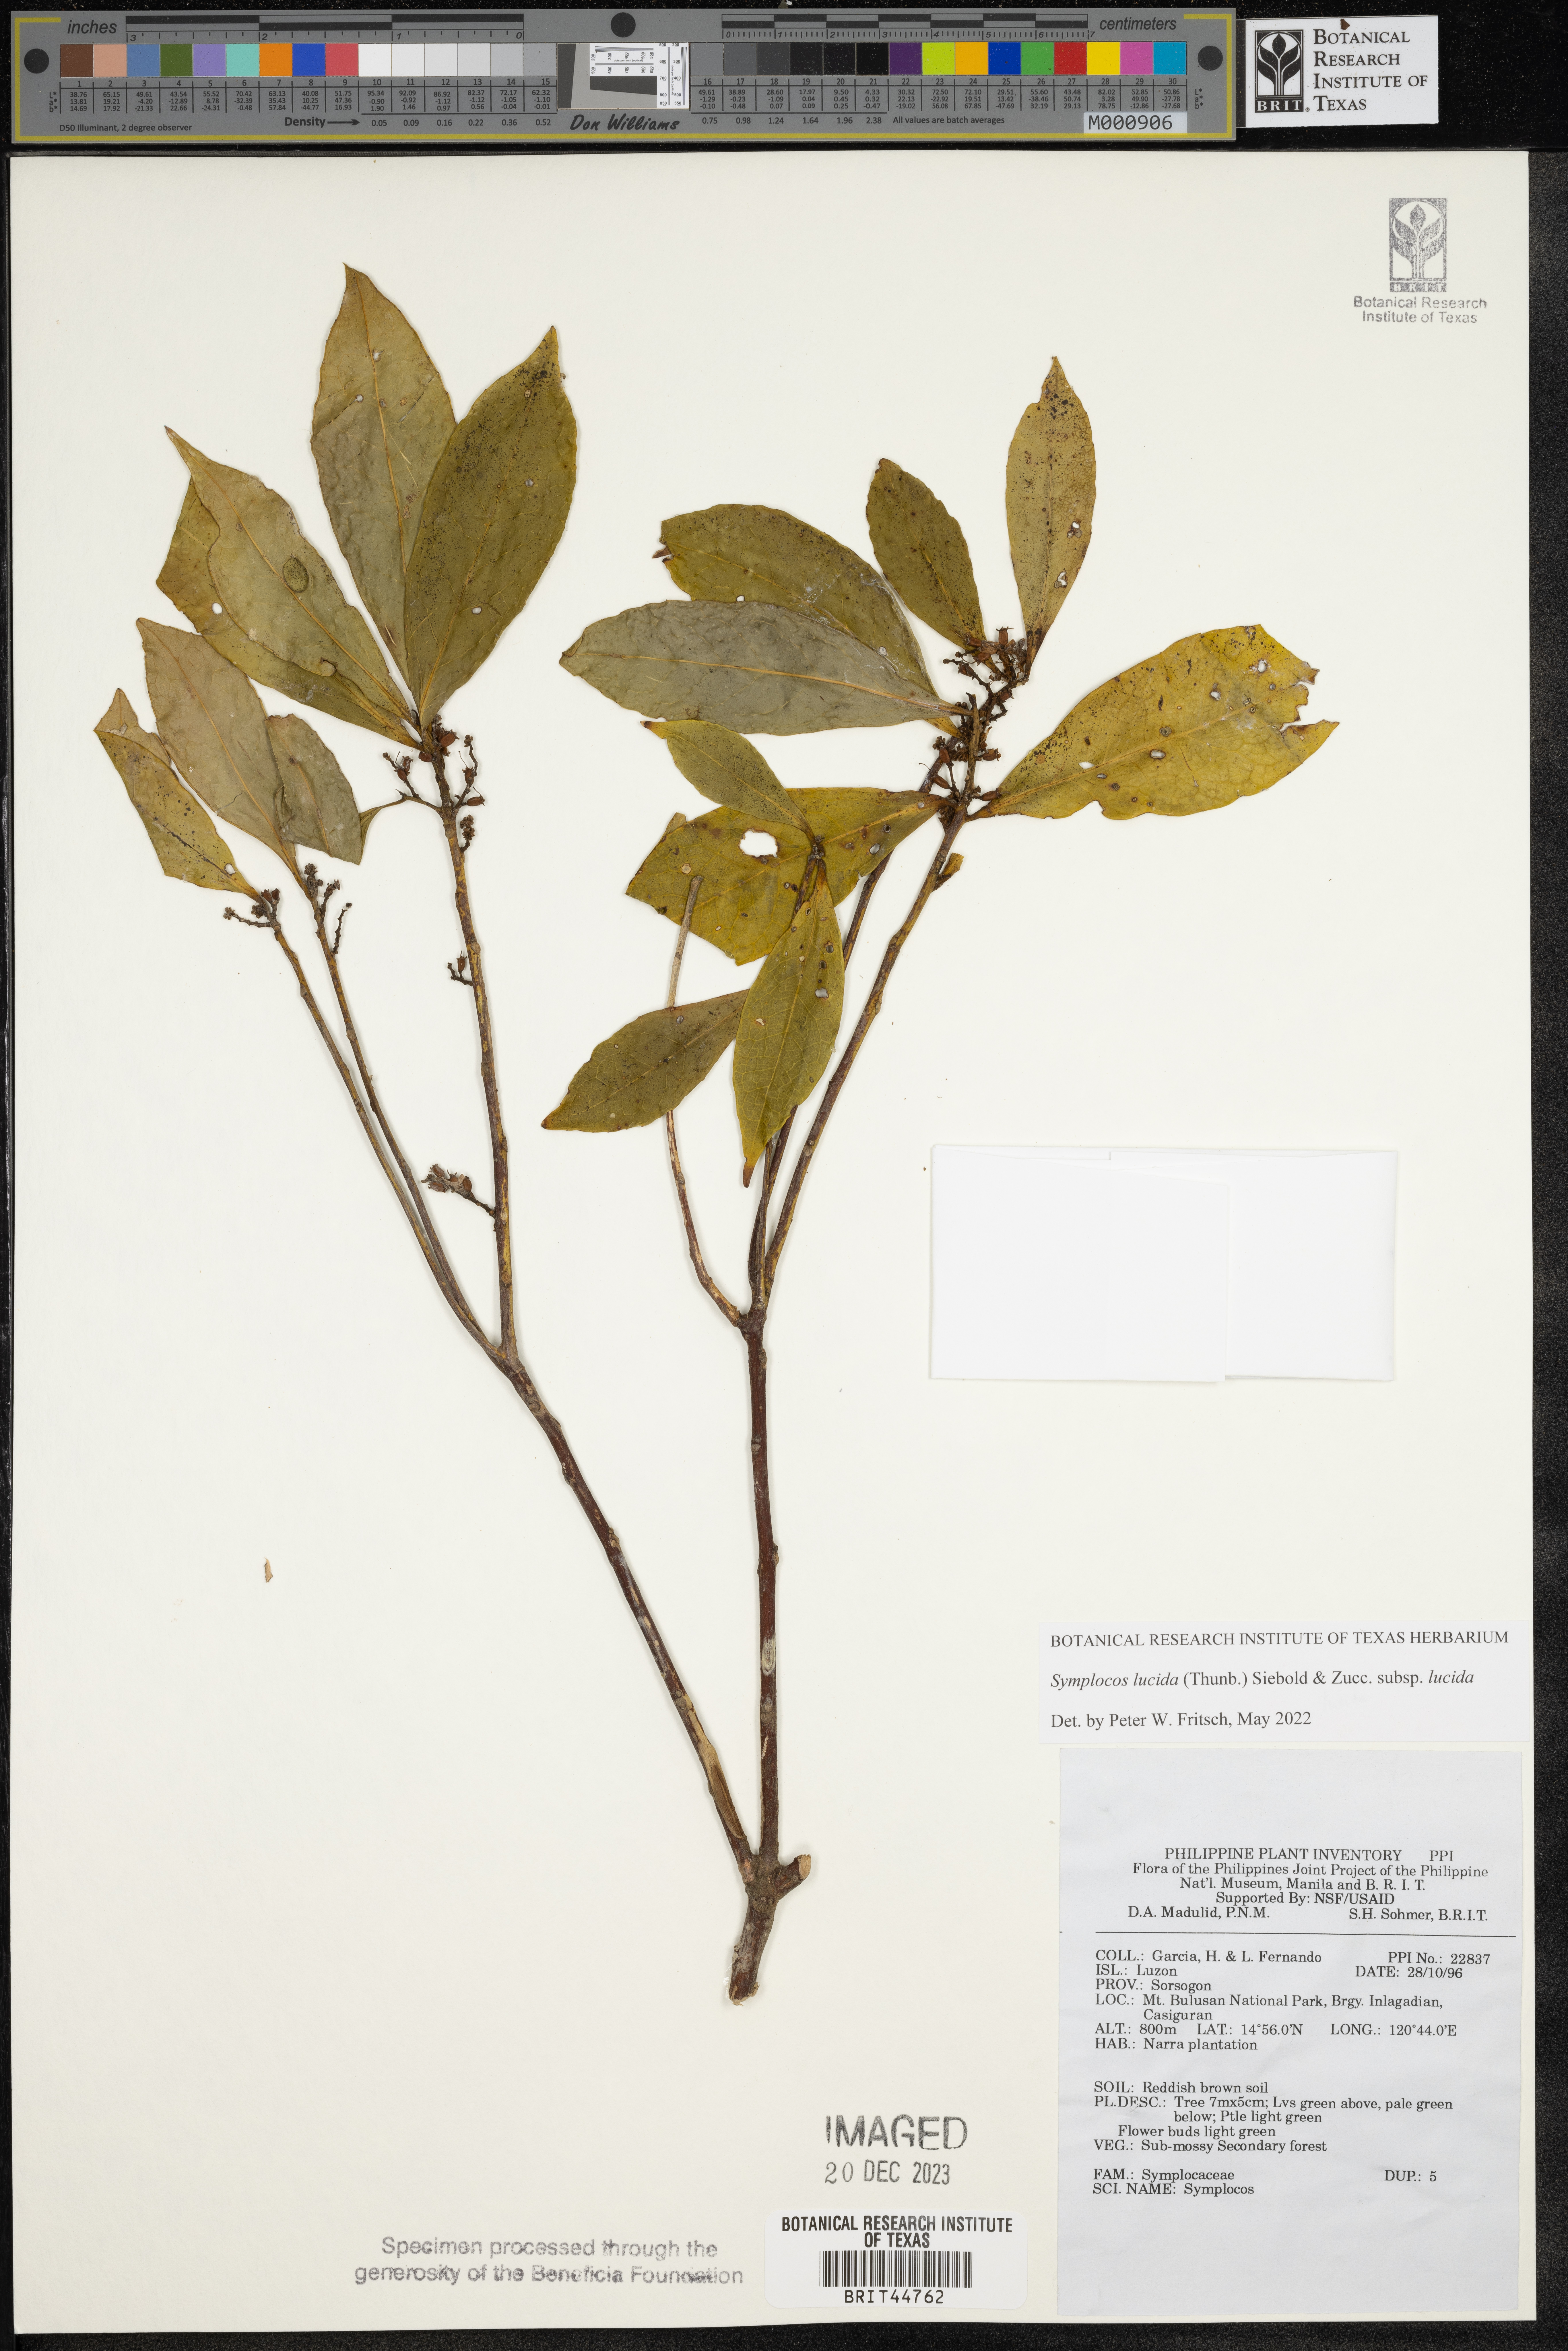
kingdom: Plantae
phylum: Tracheophyta
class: Magnoliopsida
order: Ericales
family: Symplocaceae
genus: Symplocos
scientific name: Symplocos
